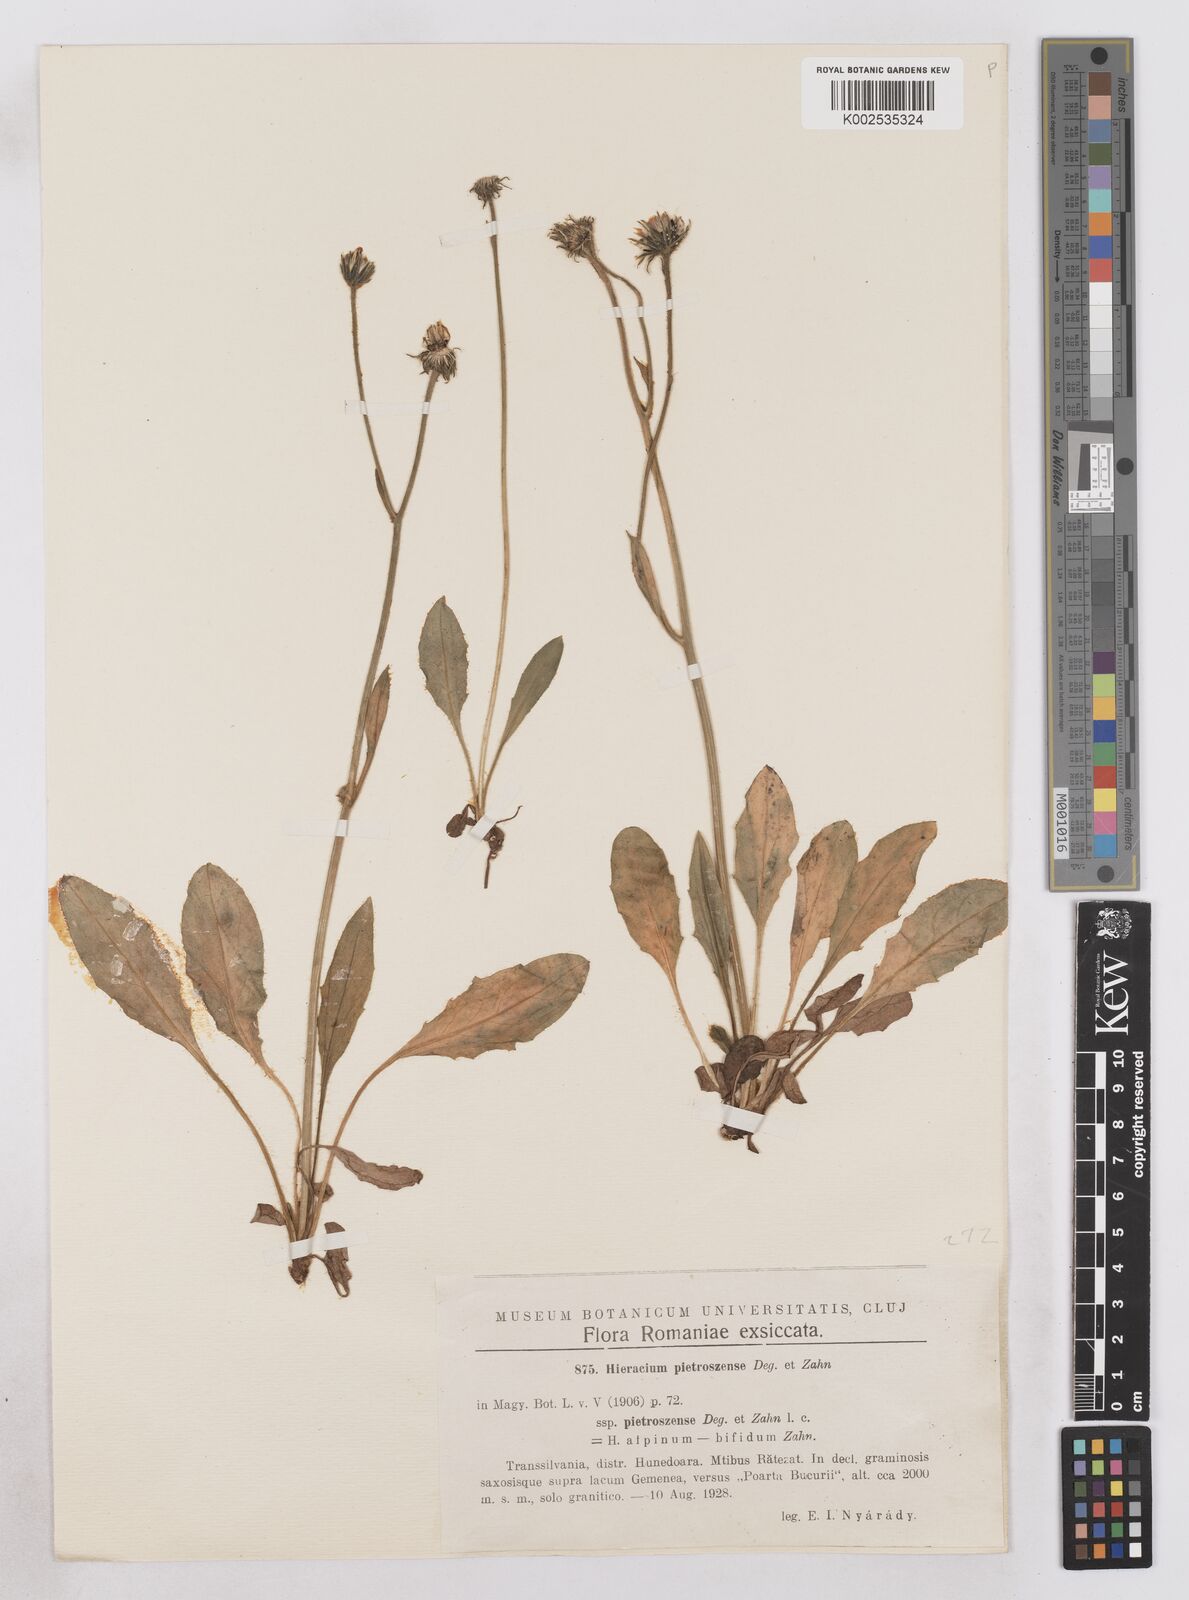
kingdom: Plantae
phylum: Tracheophyta
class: Magnoliopsida
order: Asterales
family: Asteraceae
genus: Hieracium
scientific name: Hieracium pietroszense
